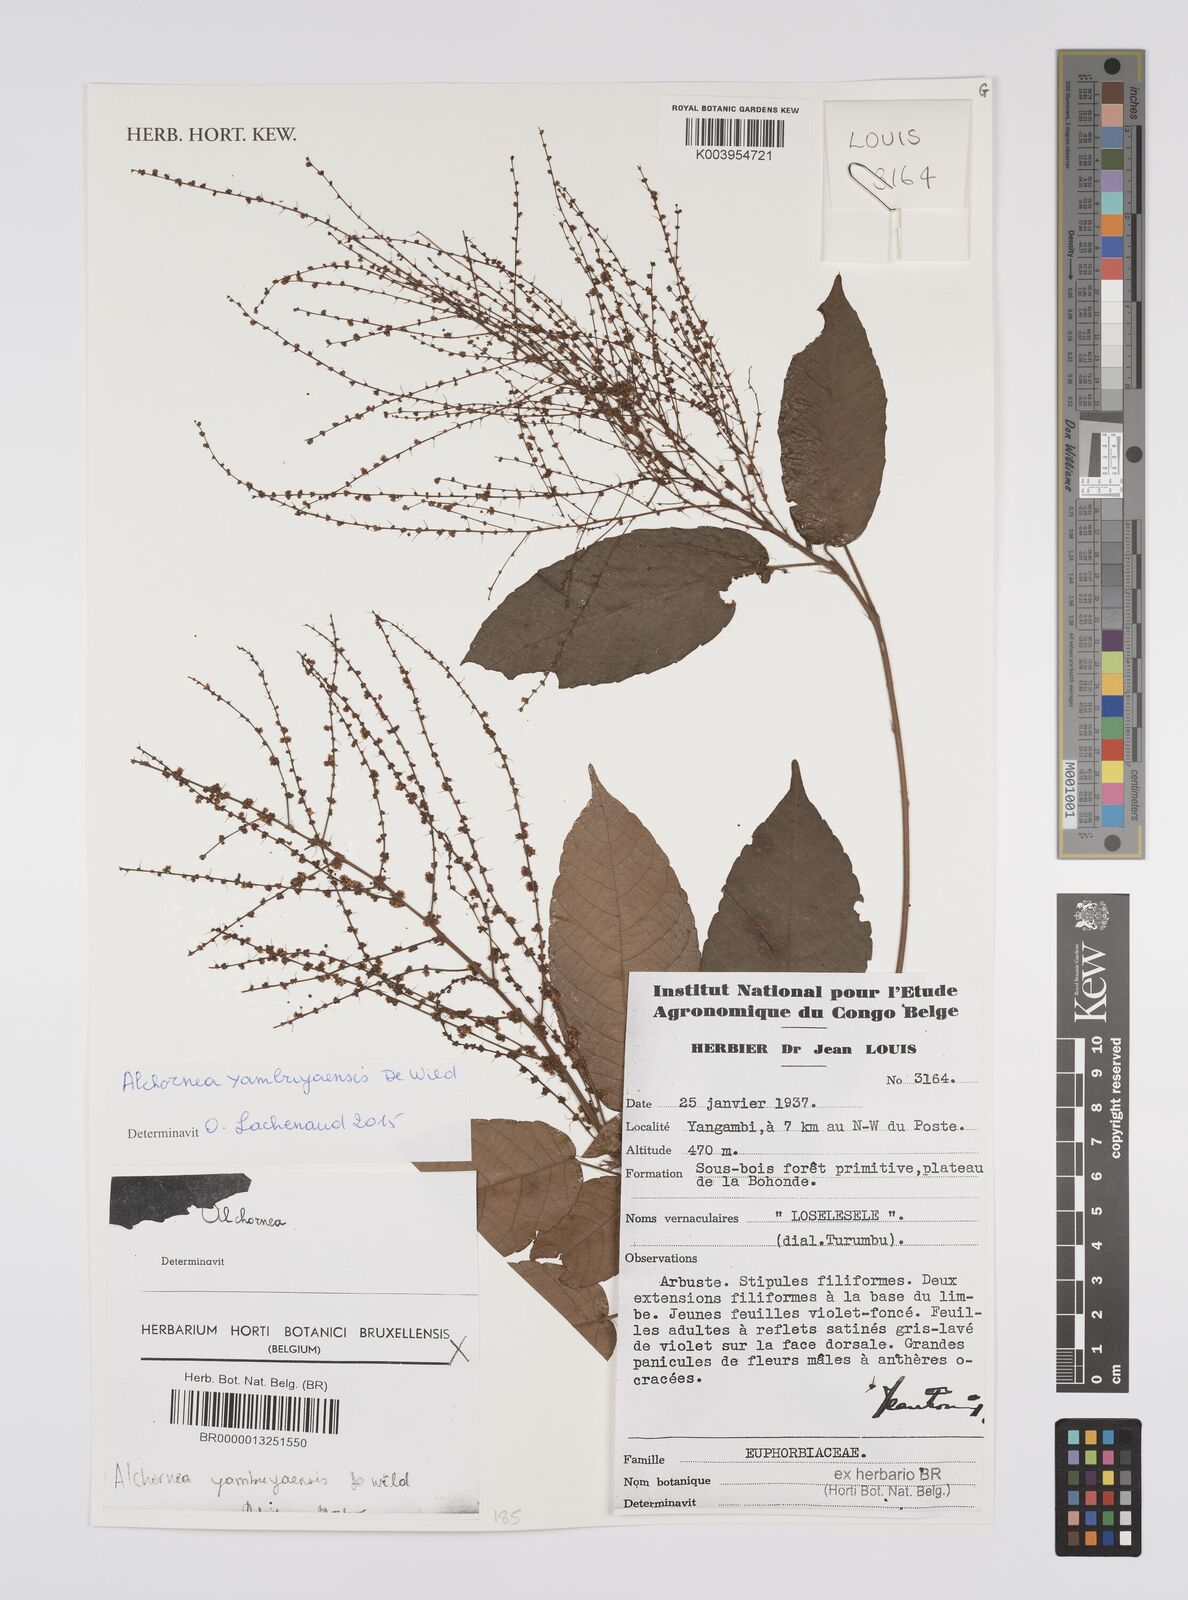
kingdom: Plantae
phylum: Tracheophyta
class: Magnoliopsida
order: Malpighiales
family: Euphorbiaceae
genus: Alchornea
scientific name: Alchornea yambuyaensis
